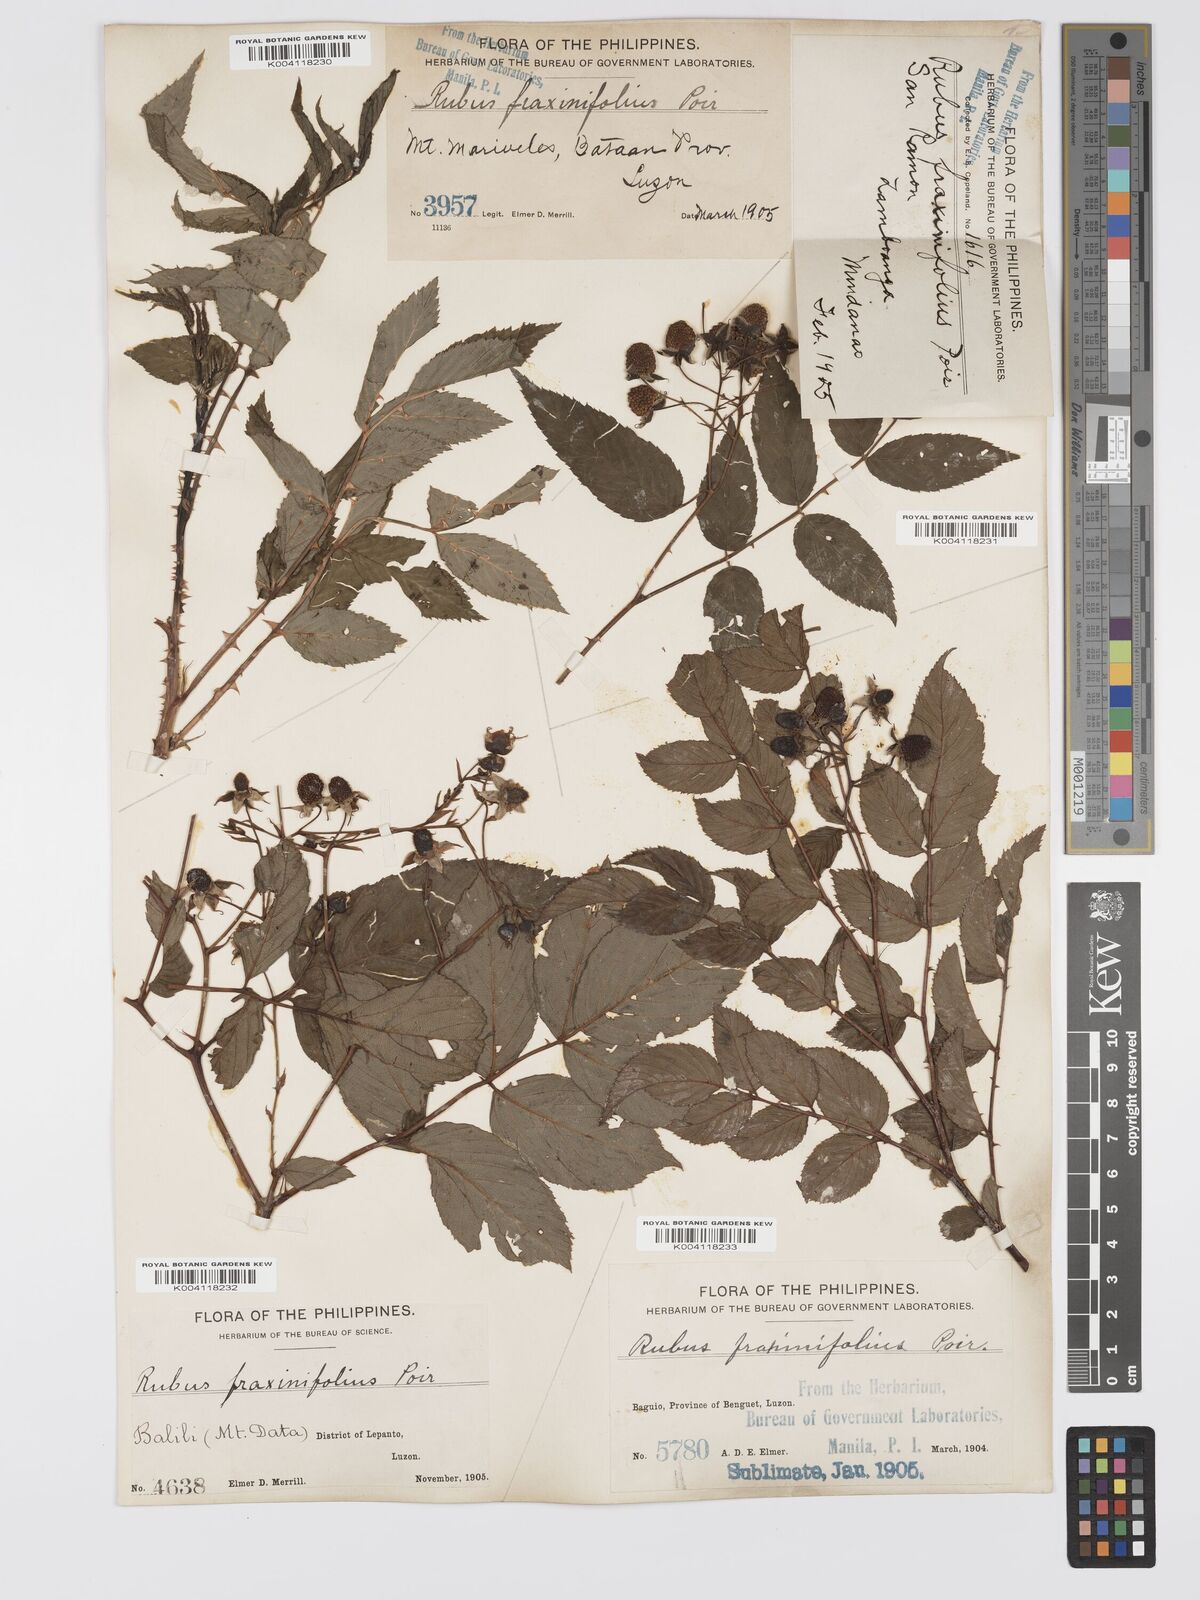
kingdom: Plantae
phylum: Tracheophyta
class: Magnoliopsida
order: Rosales
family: Rosaceae
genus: Rubus
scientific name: Rubus fraxinifolius
